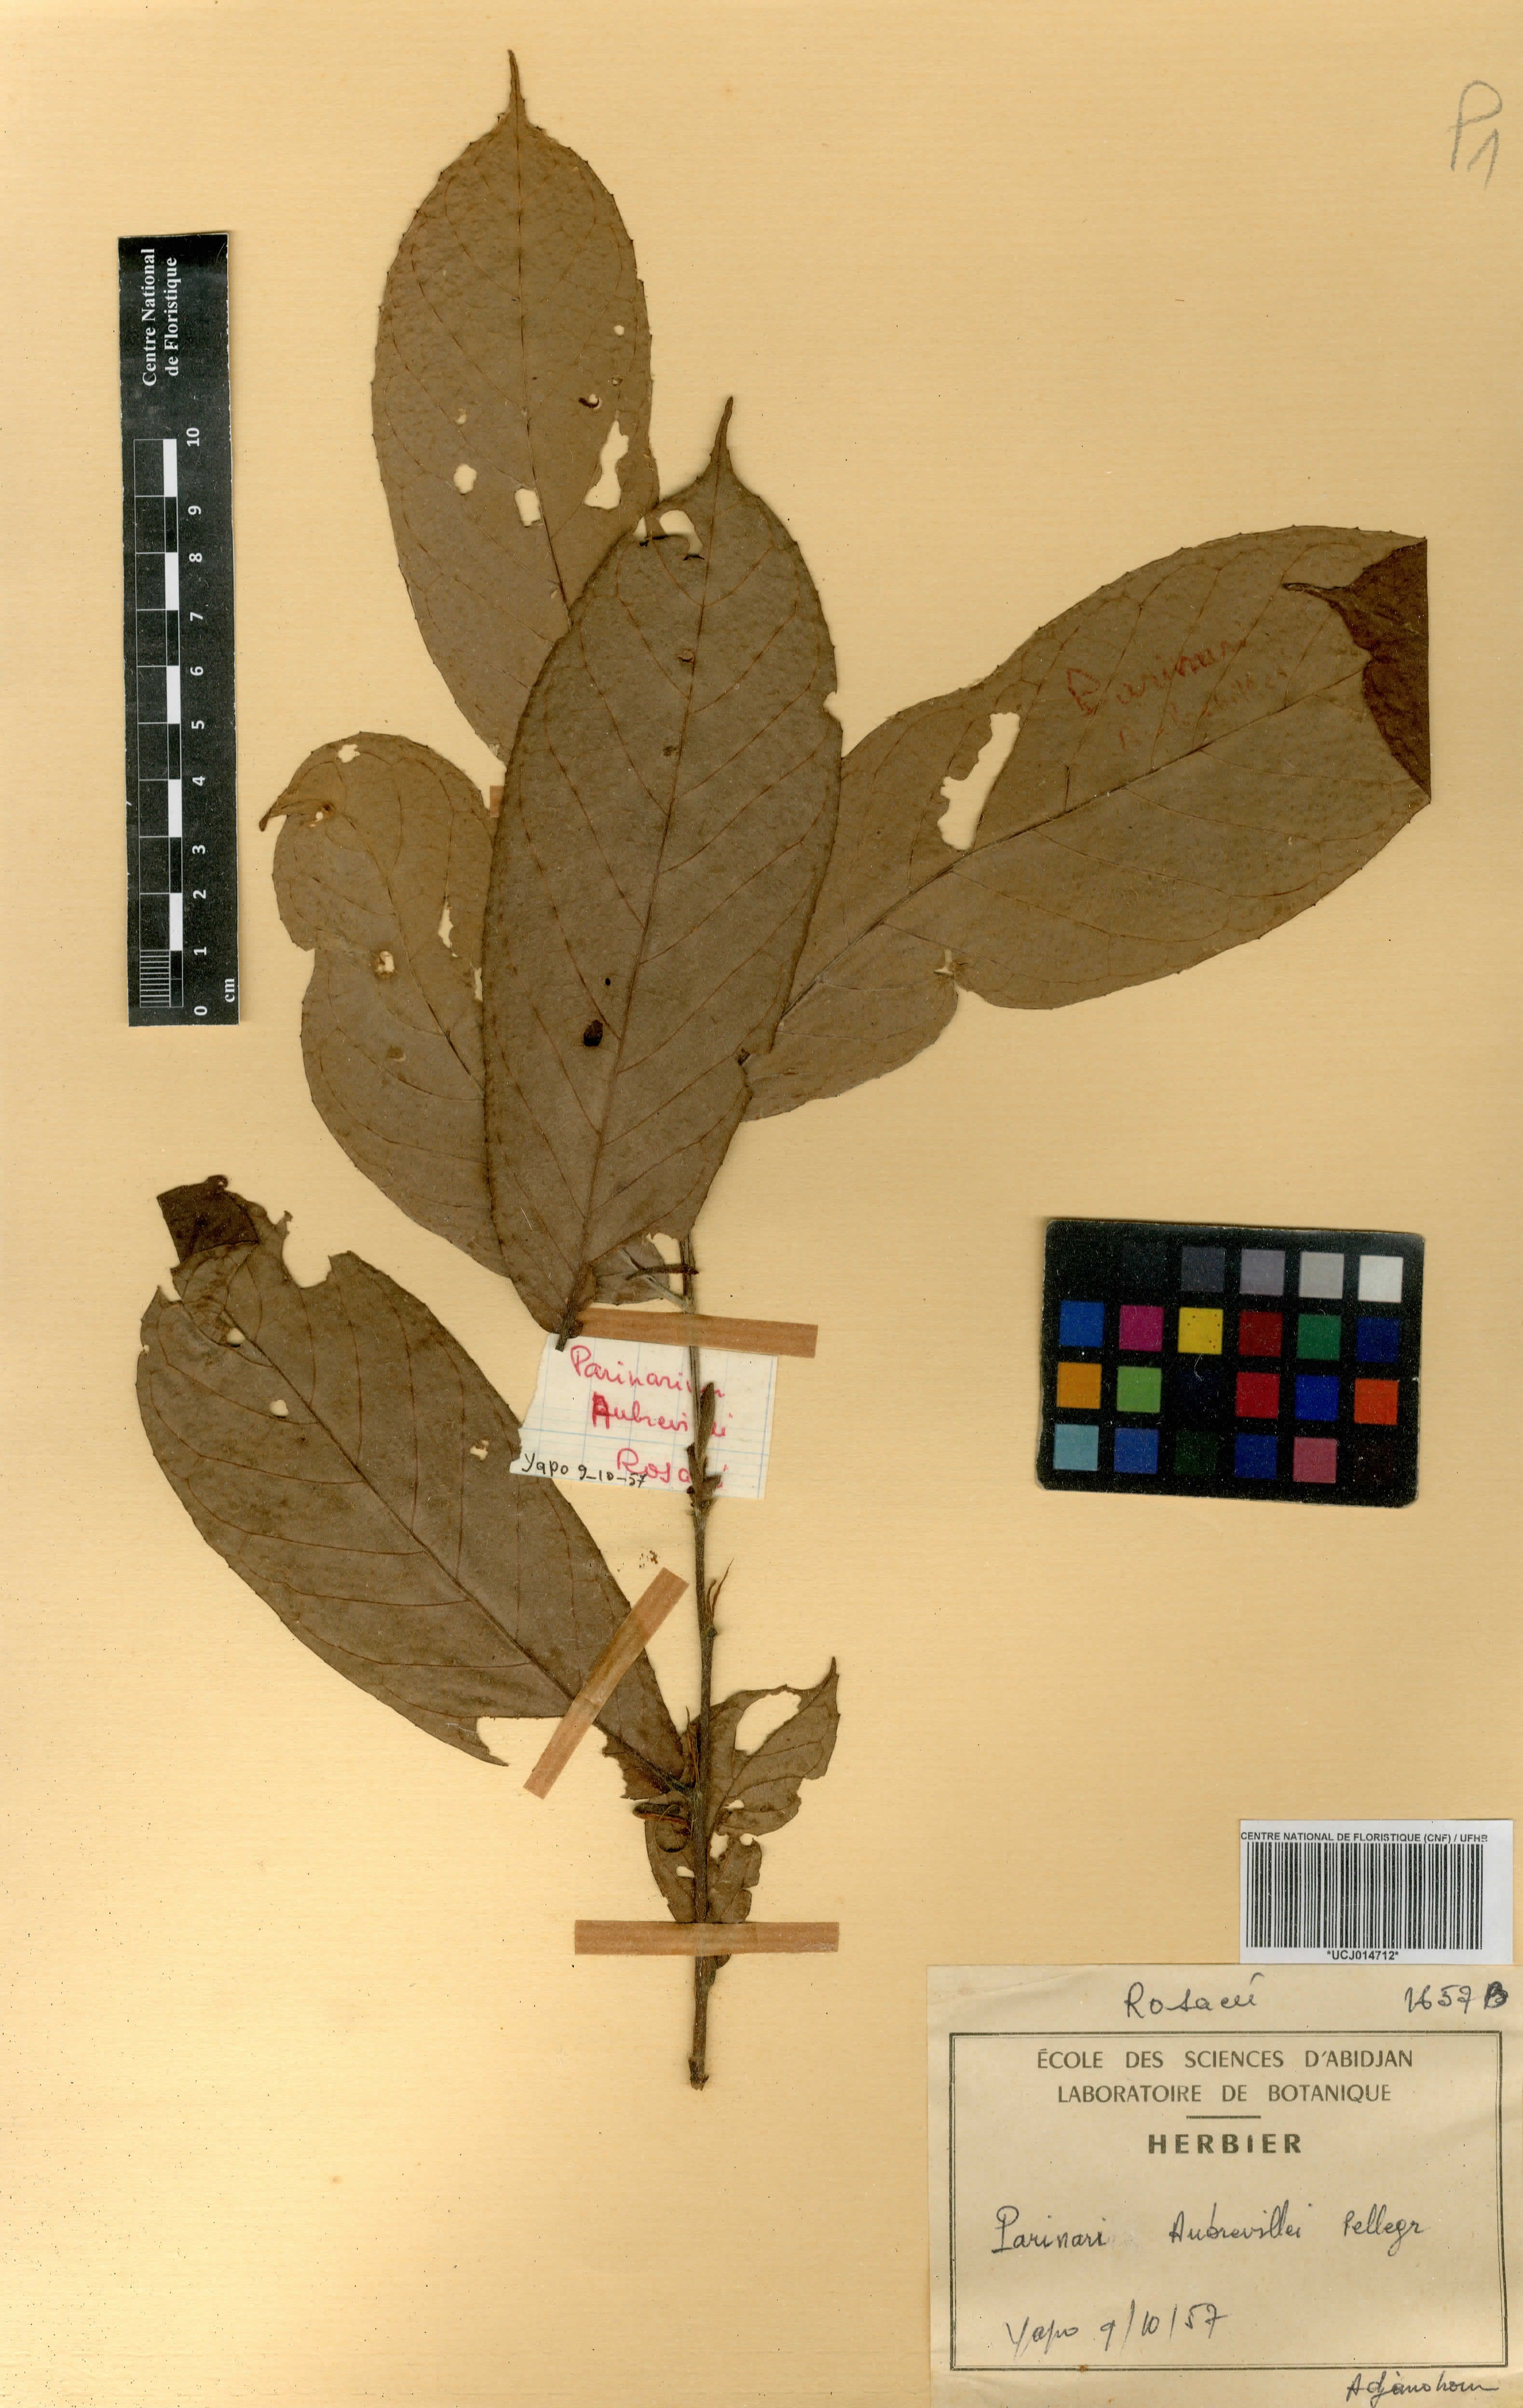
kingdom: Plantae
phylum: Tracheophyta
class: Magnoliopsida
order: Malpighiales
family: Chrysobalanaceae
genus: Maranthes
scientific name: Maranthes aubrevillei
